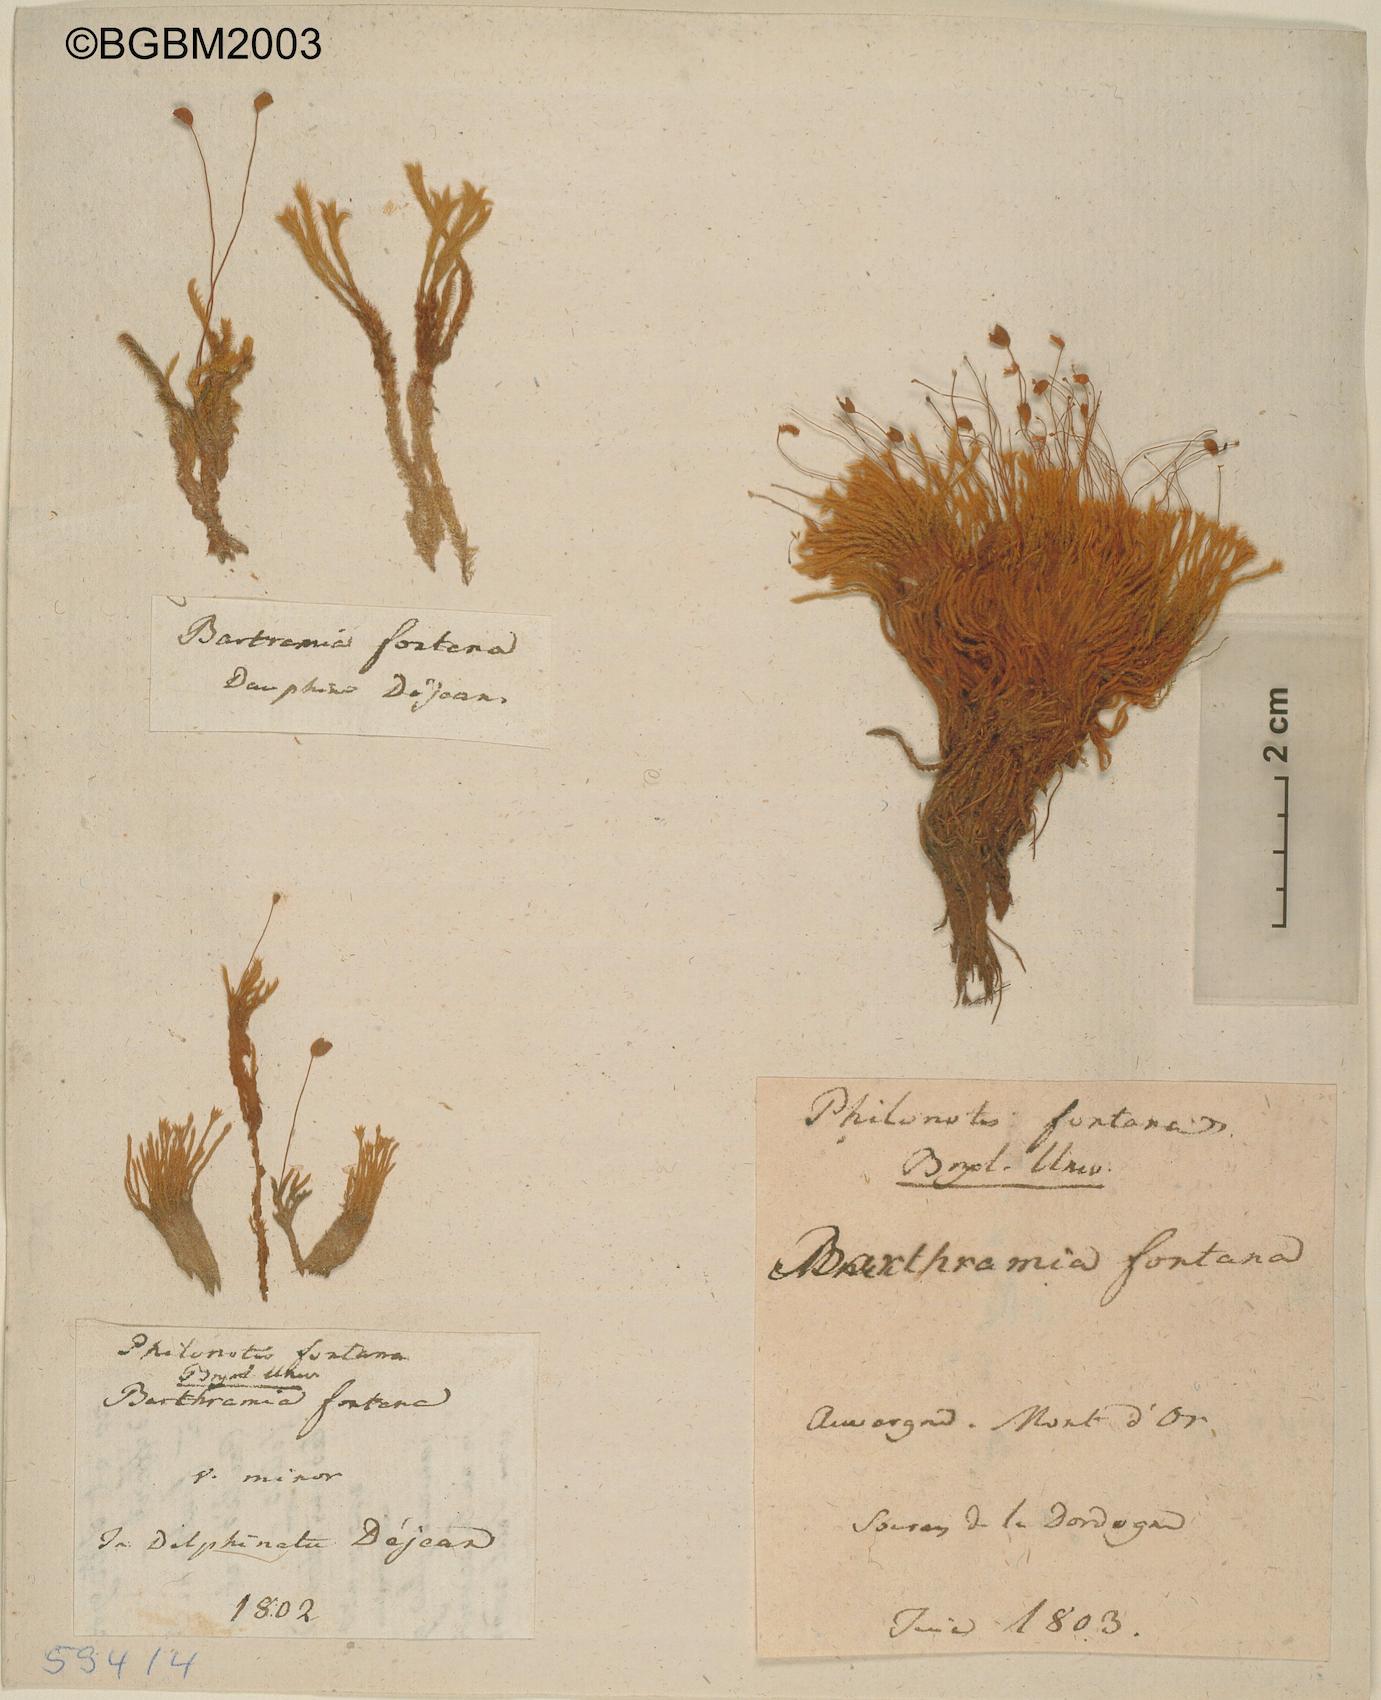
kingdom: Plantae
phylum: Bryophyta
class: Bryopsida
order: Bartramiales
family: Bartramiaceae
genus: Philonotis
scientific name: Philonotis fontana
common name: Fountain apple-moss
